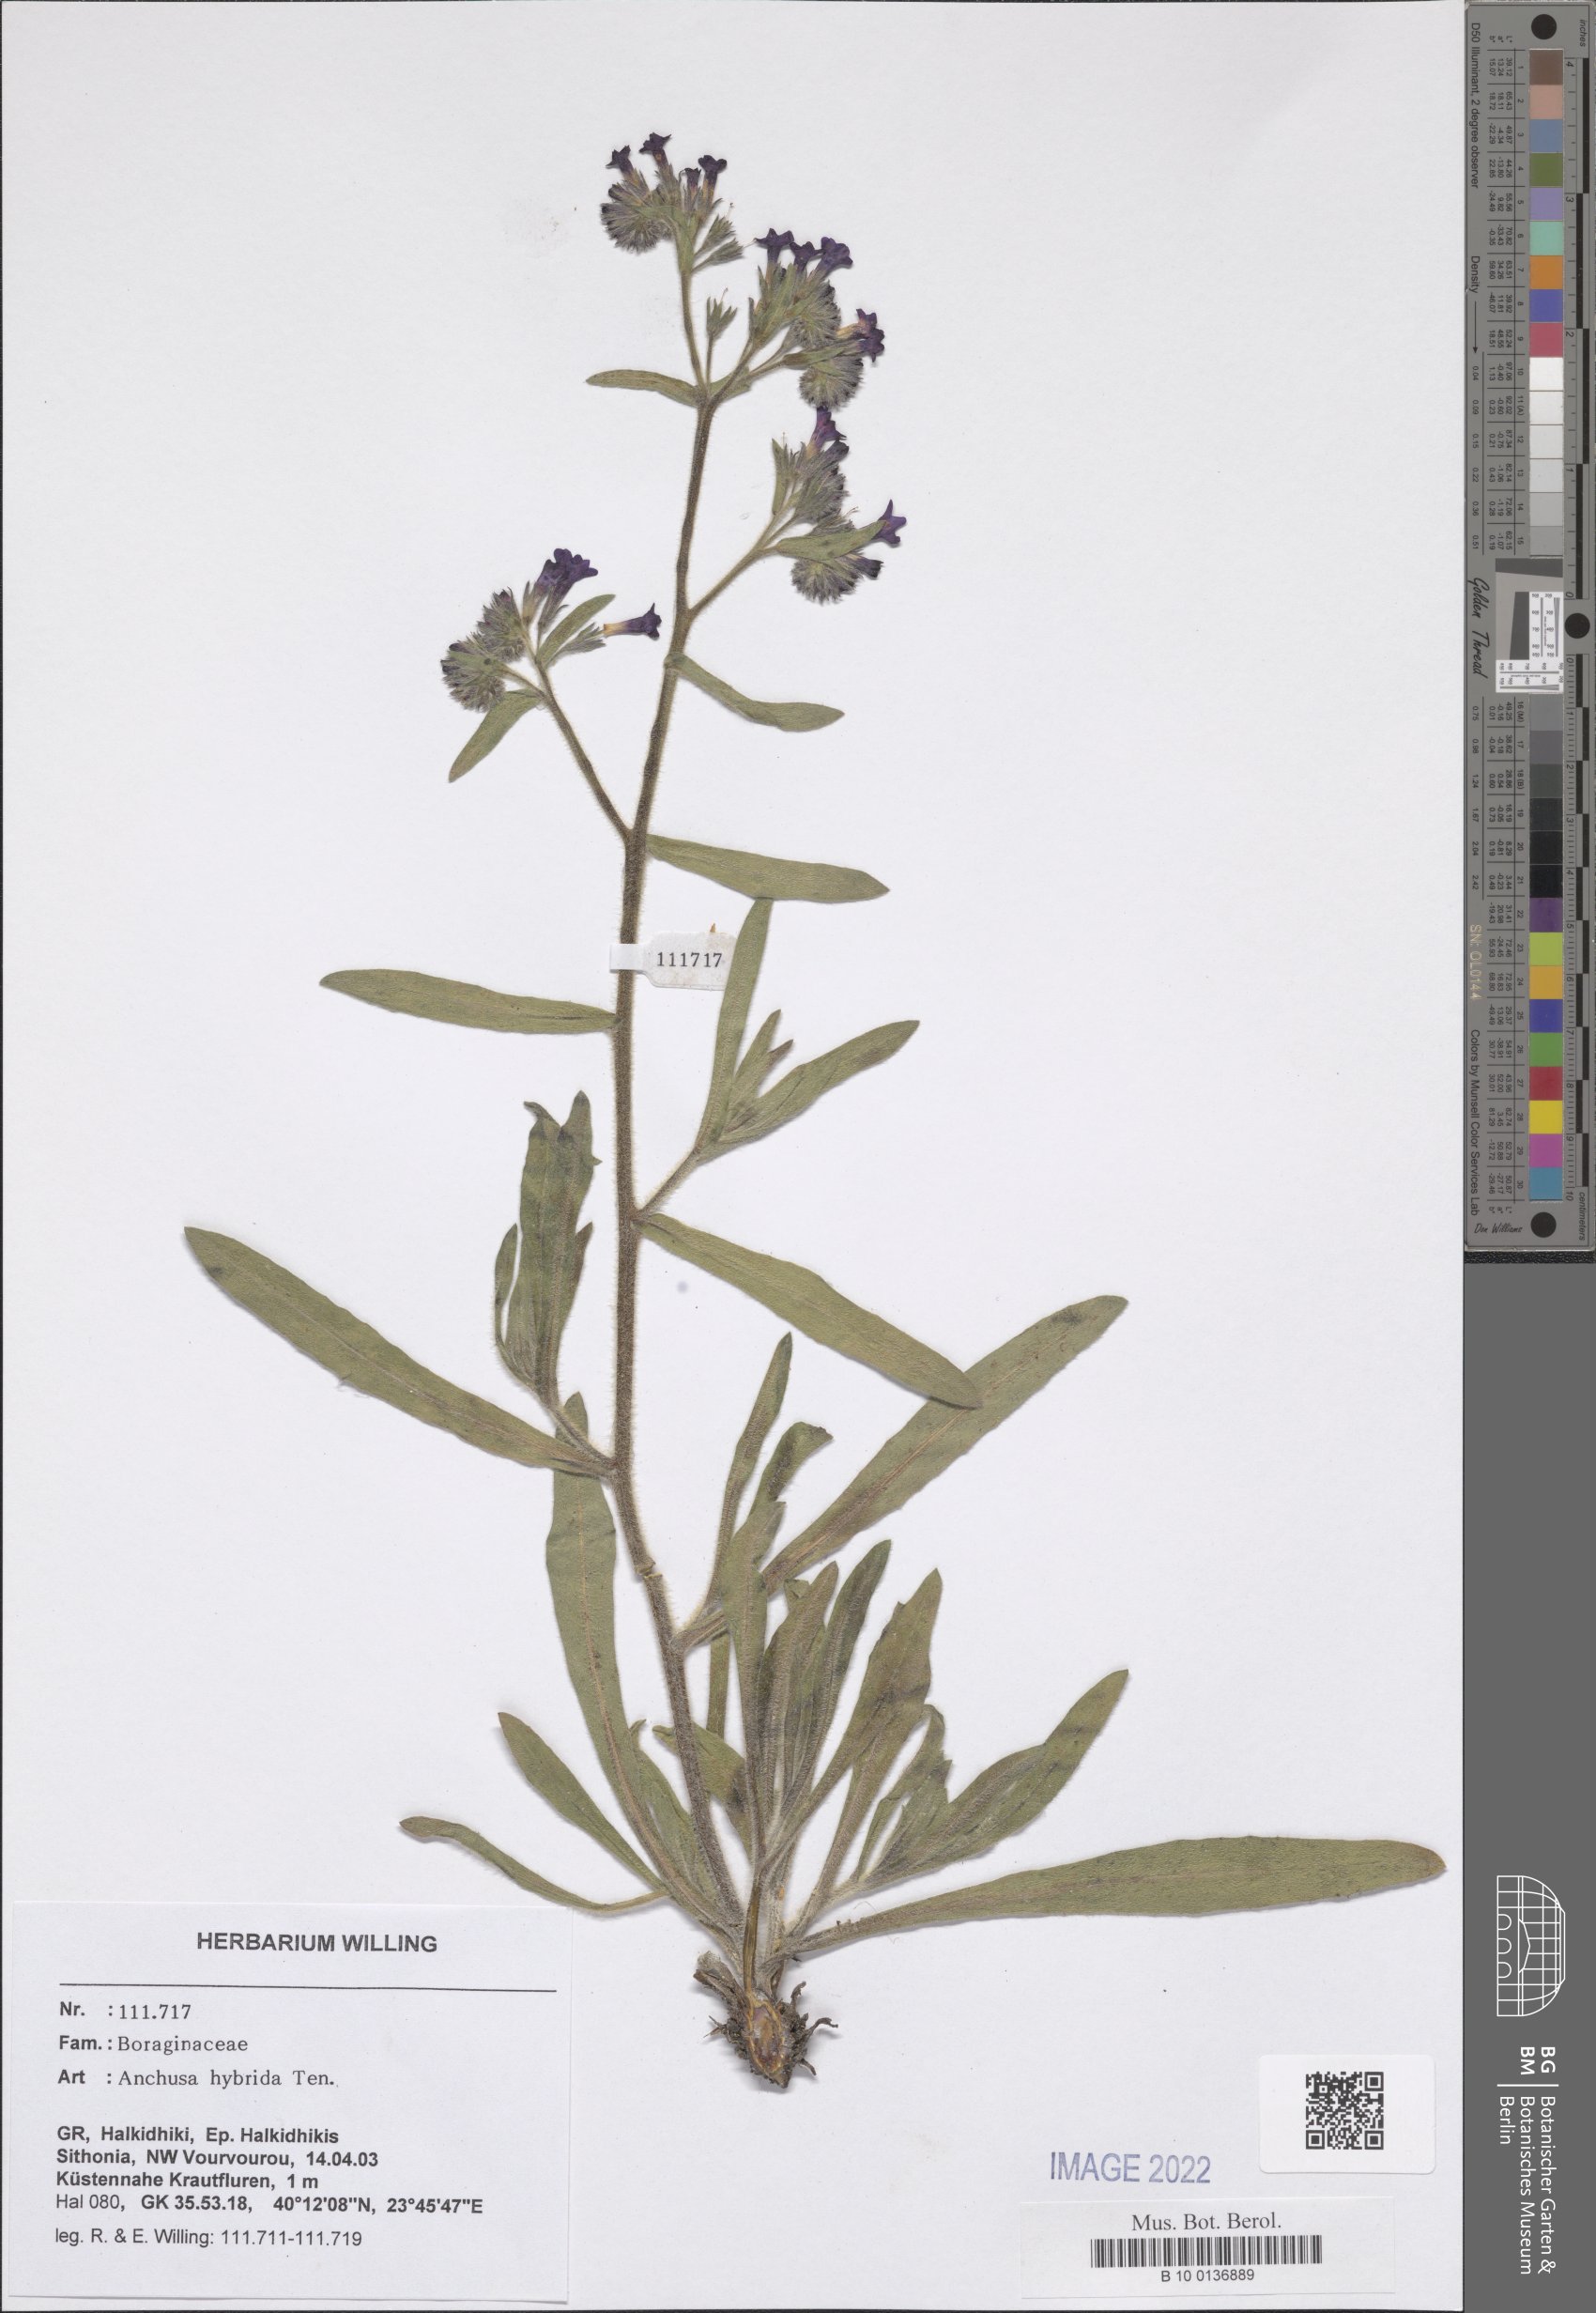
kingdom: Plantae
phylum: Tracheophyta
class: Magnoliopsida
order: Boraginales
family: Boraginaceae
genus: Anchusa
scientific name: Anchusa hybrida
